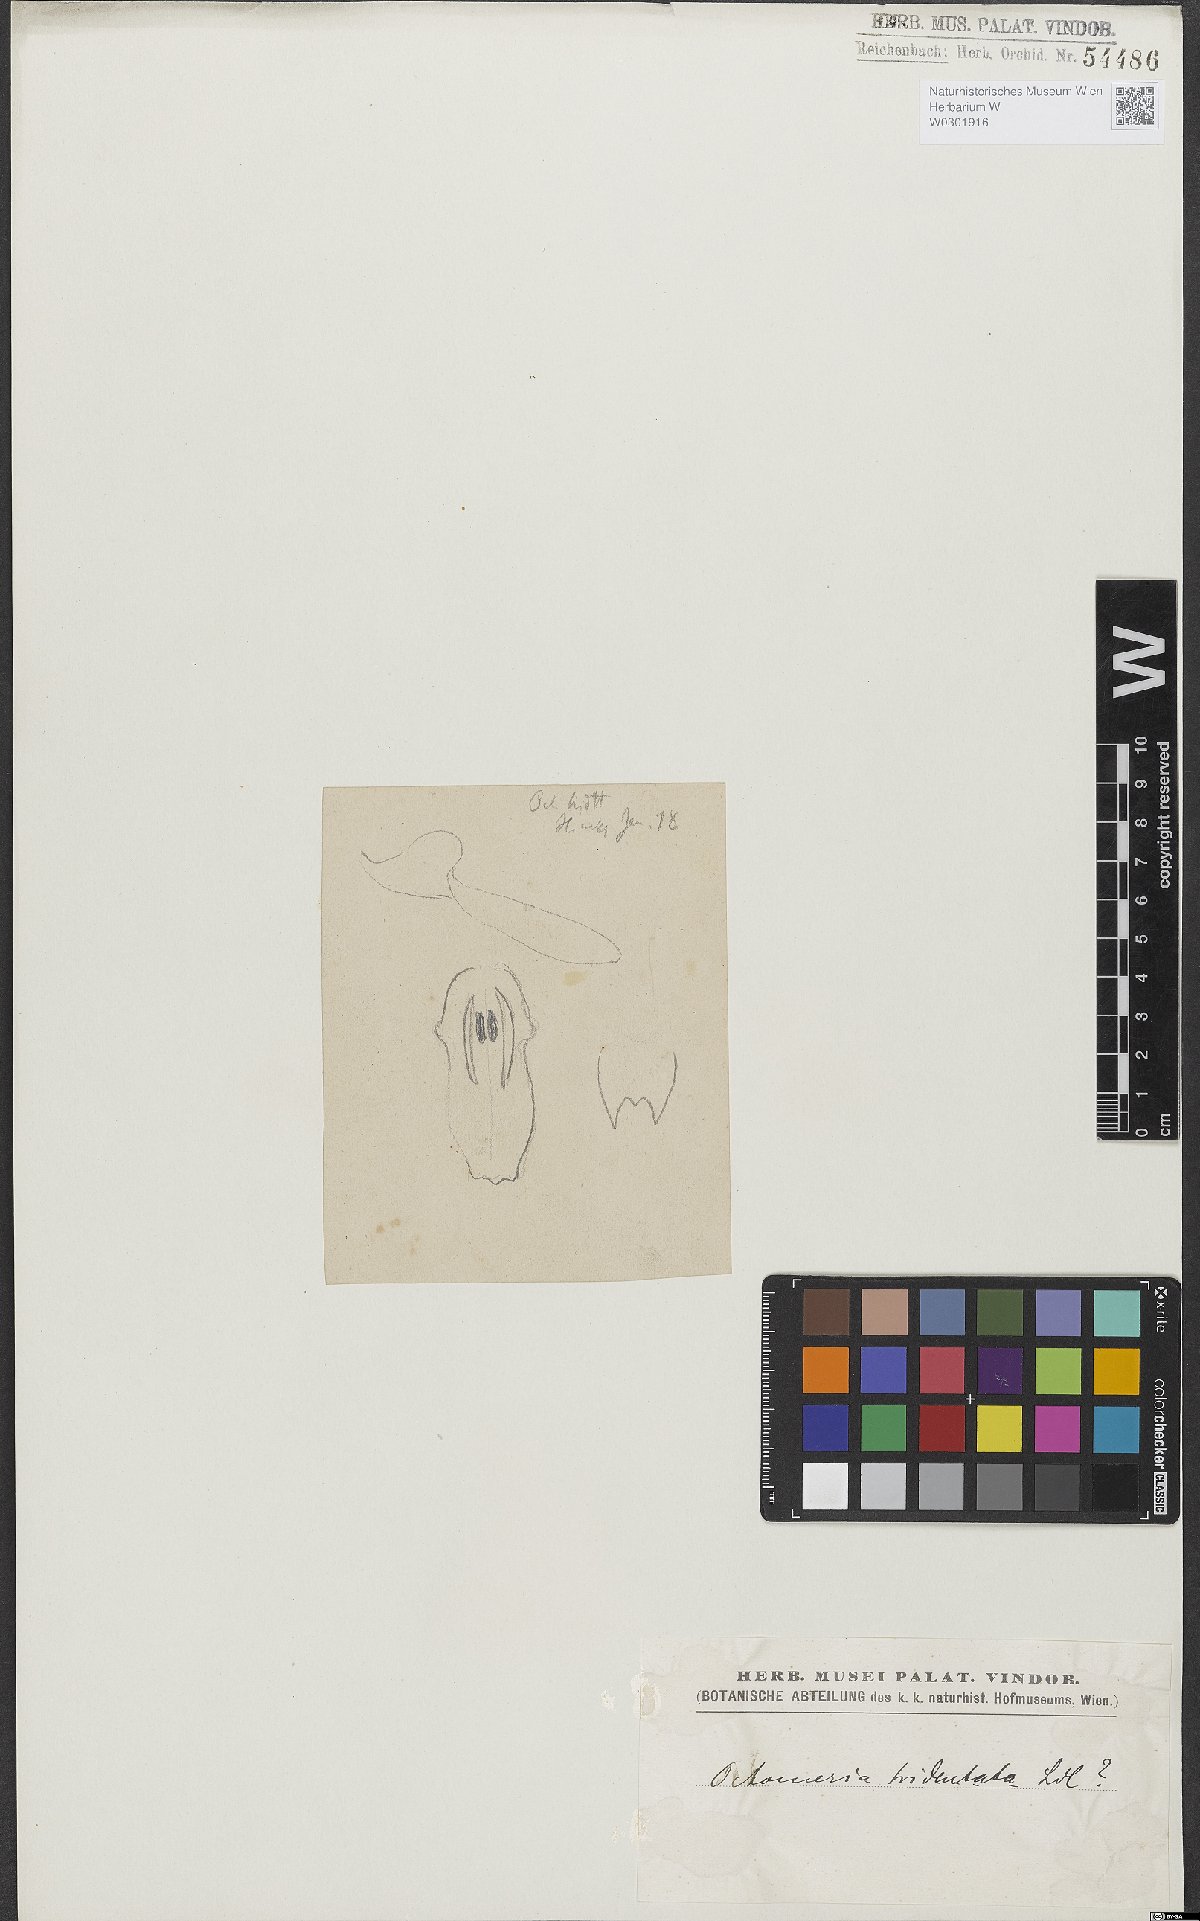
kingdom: Plantae
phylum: Tracheophyta
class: Liliopsida
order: Asparagales
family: Orchidaceae
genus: Octomeria
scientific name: Octomeria tridentata
